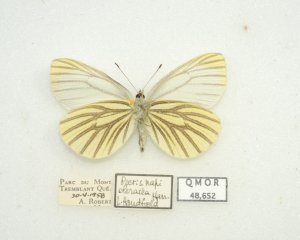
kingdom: Animalia
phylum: Arthropoda
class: Insecta
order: Lepidoptera
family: Pieridae
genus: Pieris
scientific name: Pieris oleracea
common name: Mustard White
